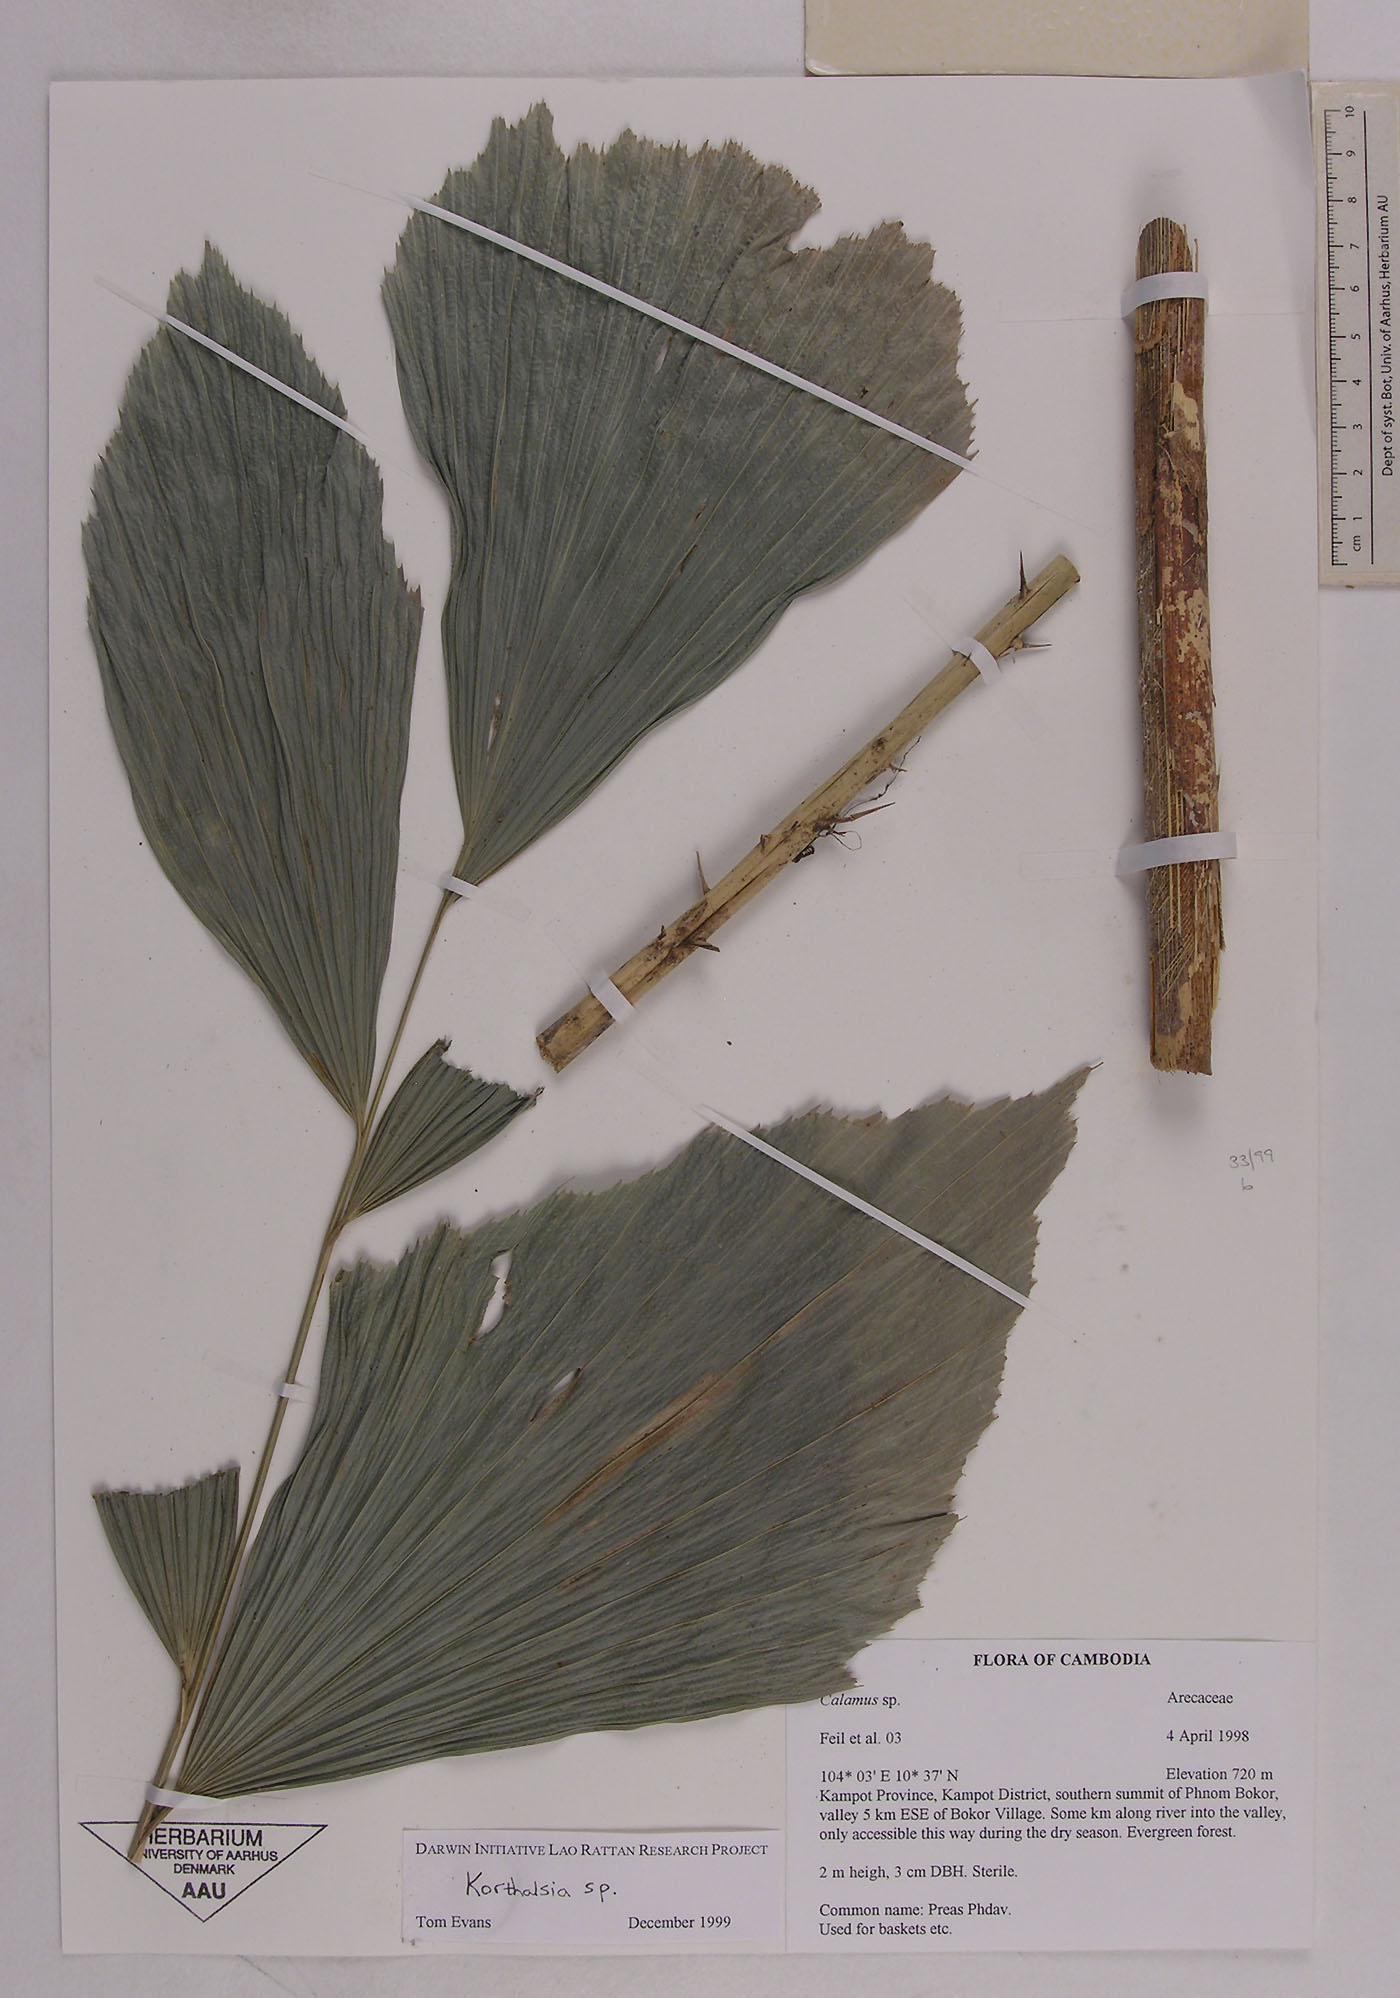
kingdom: Plantae
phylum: Tracheophyta
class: Liliopsida
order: Arecales
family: Arecaceae
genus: Calamus
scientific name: Calamus
